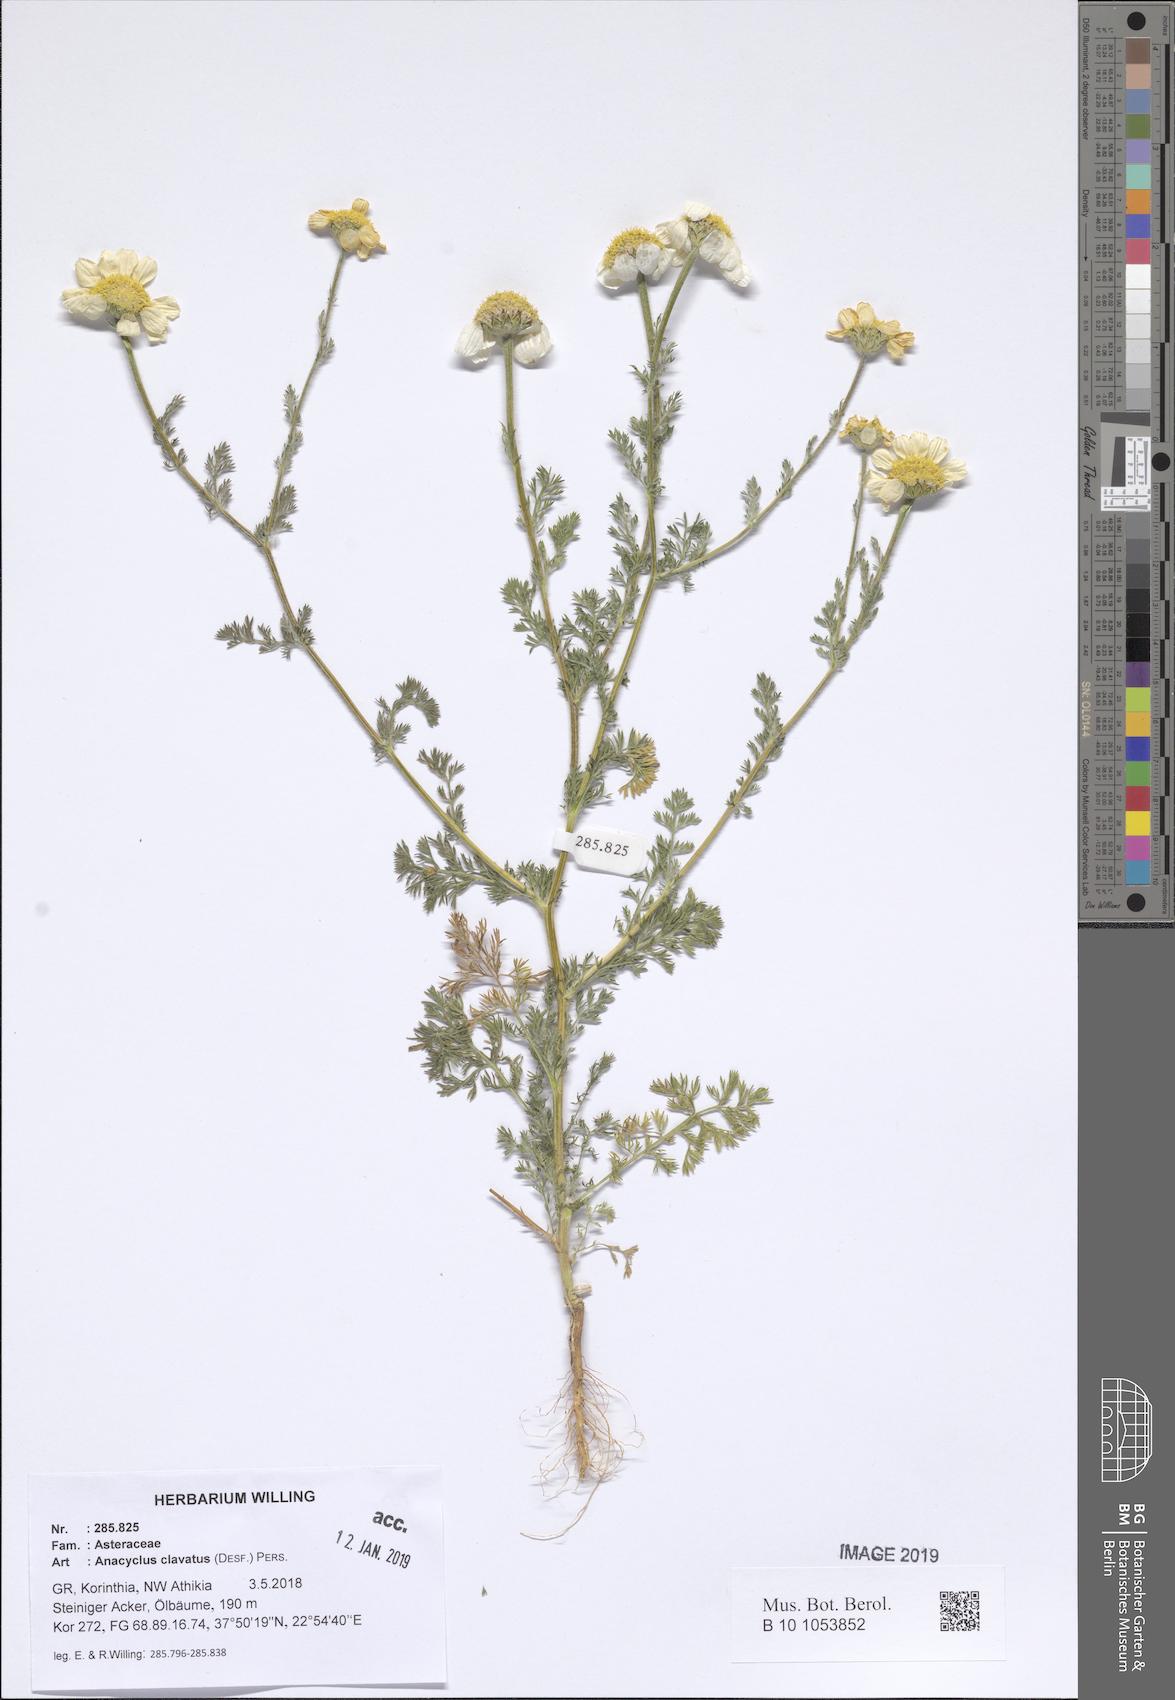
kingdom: Plantae
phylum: Tracheophyta
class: Magnoliopsida
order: Asterales
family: Asteraceae
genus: Anacyclus
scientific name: Anacyclus clavatus
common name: Whitebuttons
